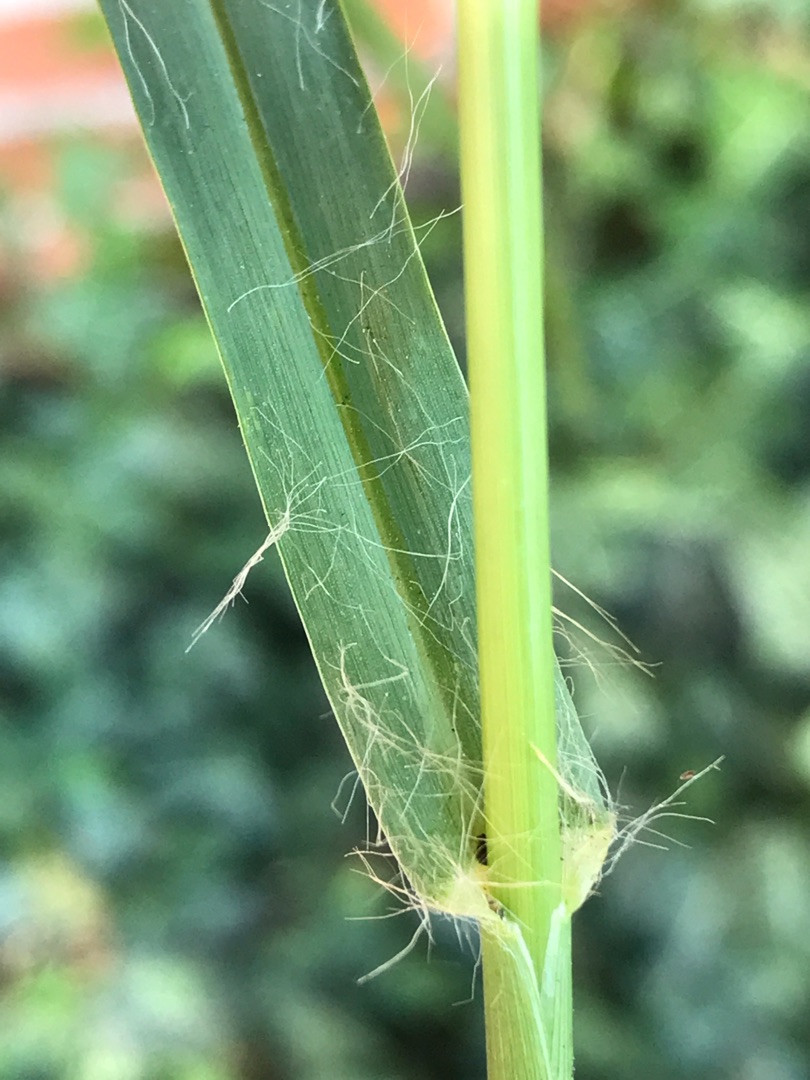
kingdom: Plantae
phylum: Tracheophyta
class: Liliopsida
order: Poales
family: Poaceae
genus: Setaria
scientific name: Setaria pumila
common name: Blågrøn skærmaks
